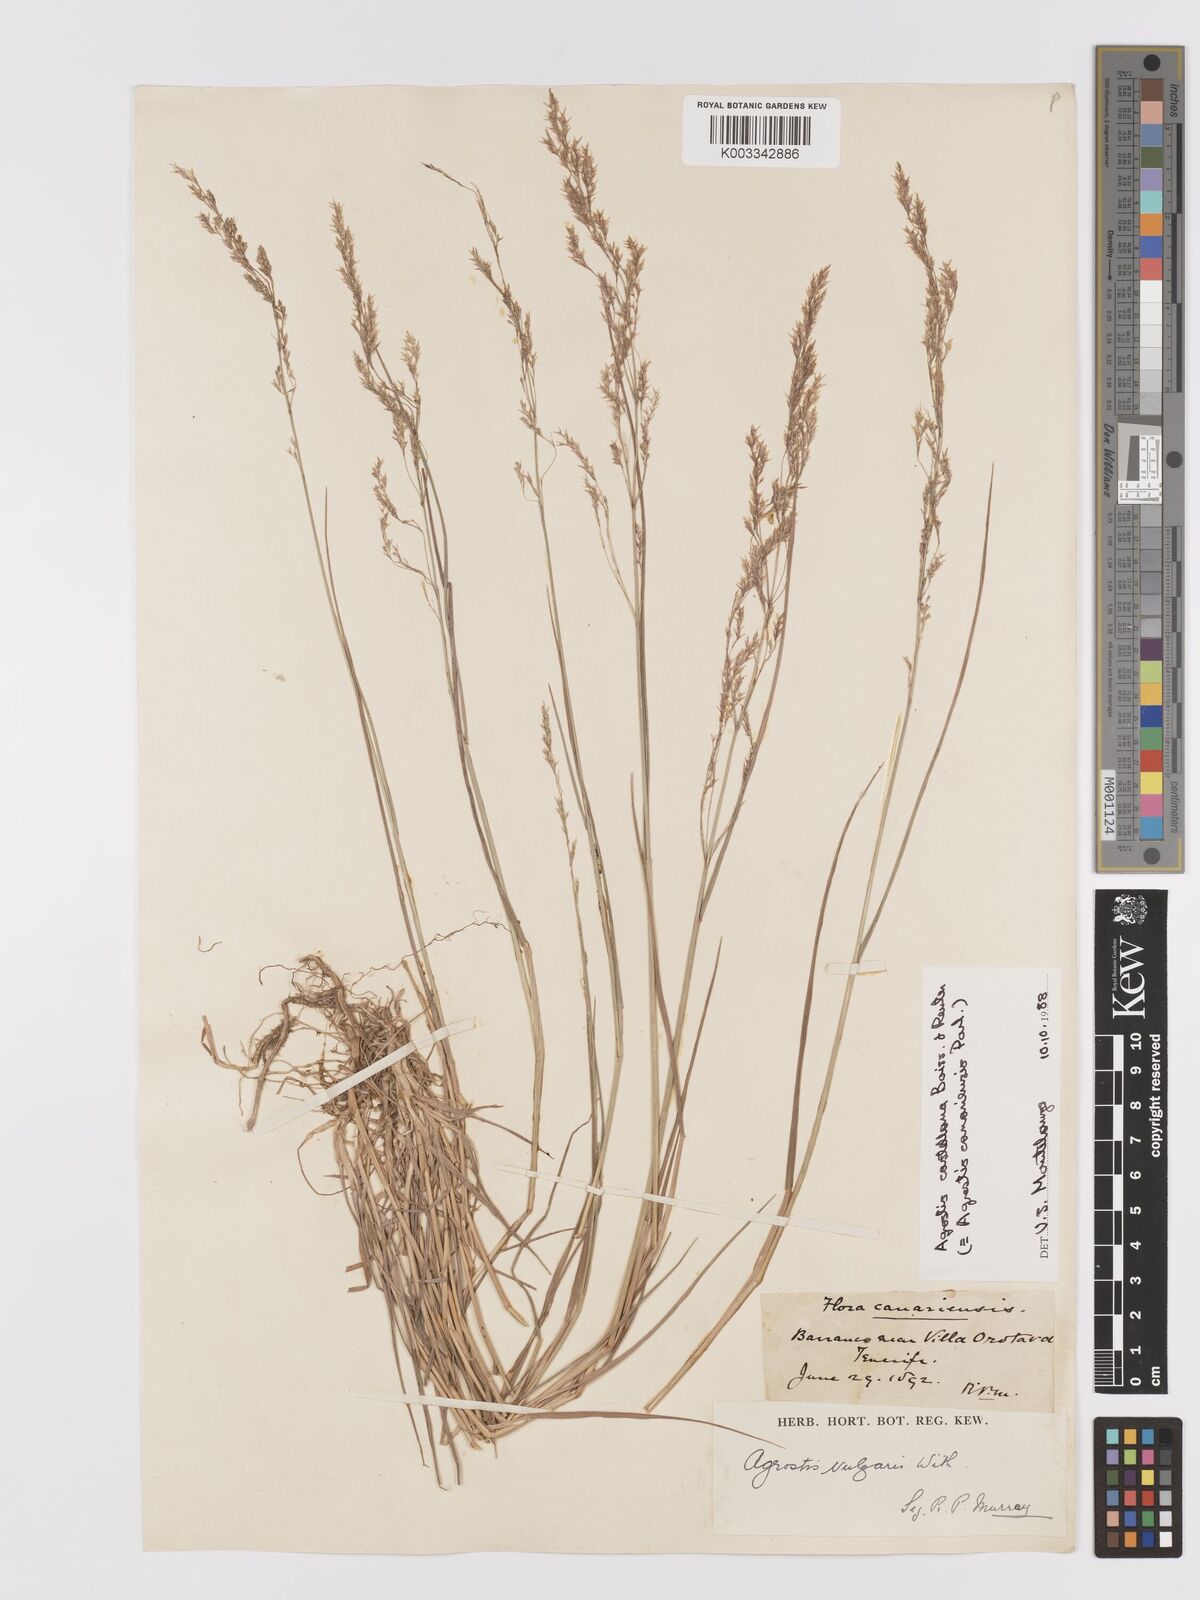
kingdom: Plantae
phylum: Tracheophyta
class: Liliopsida
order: Poales
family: Poaceae
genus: Agrostis
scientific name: Agrostis castellana
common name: Highland bent
